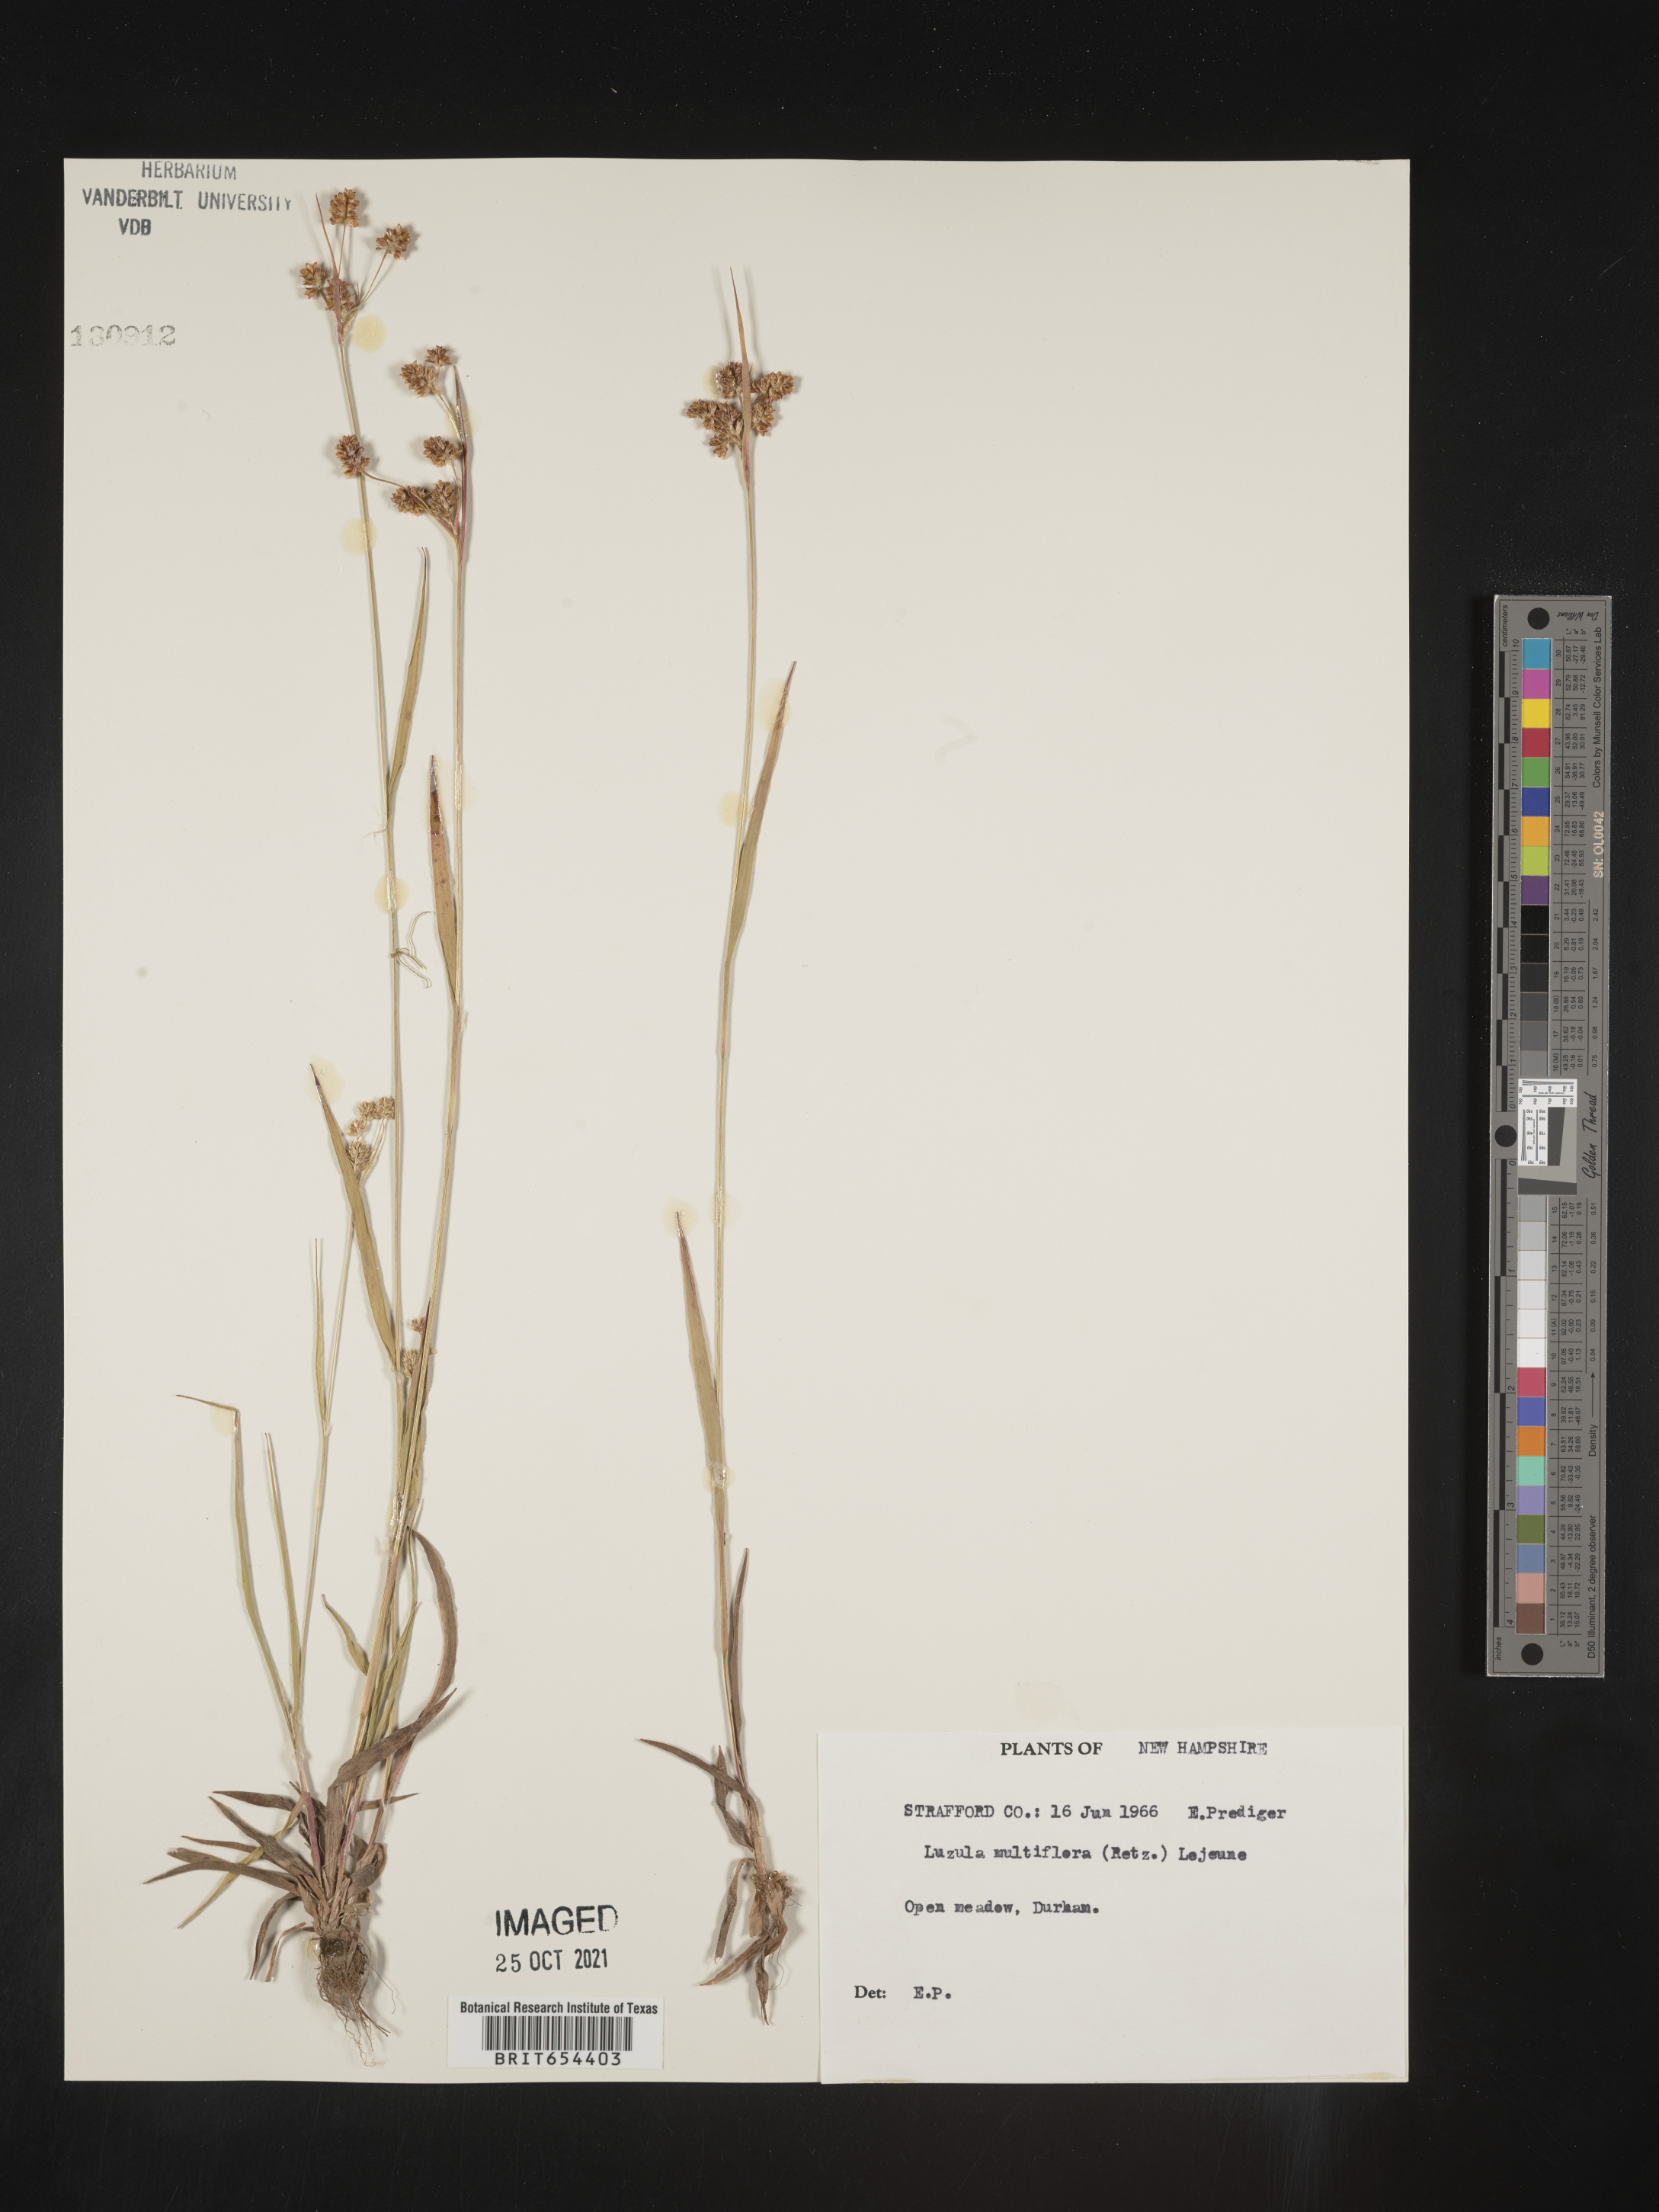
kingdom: Plantae
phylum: Tracheophyta
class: Liliopsida
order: Poales
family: Juncaceae
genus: Luzula
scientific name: Luzula multiflora
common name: Heath wood-rush
